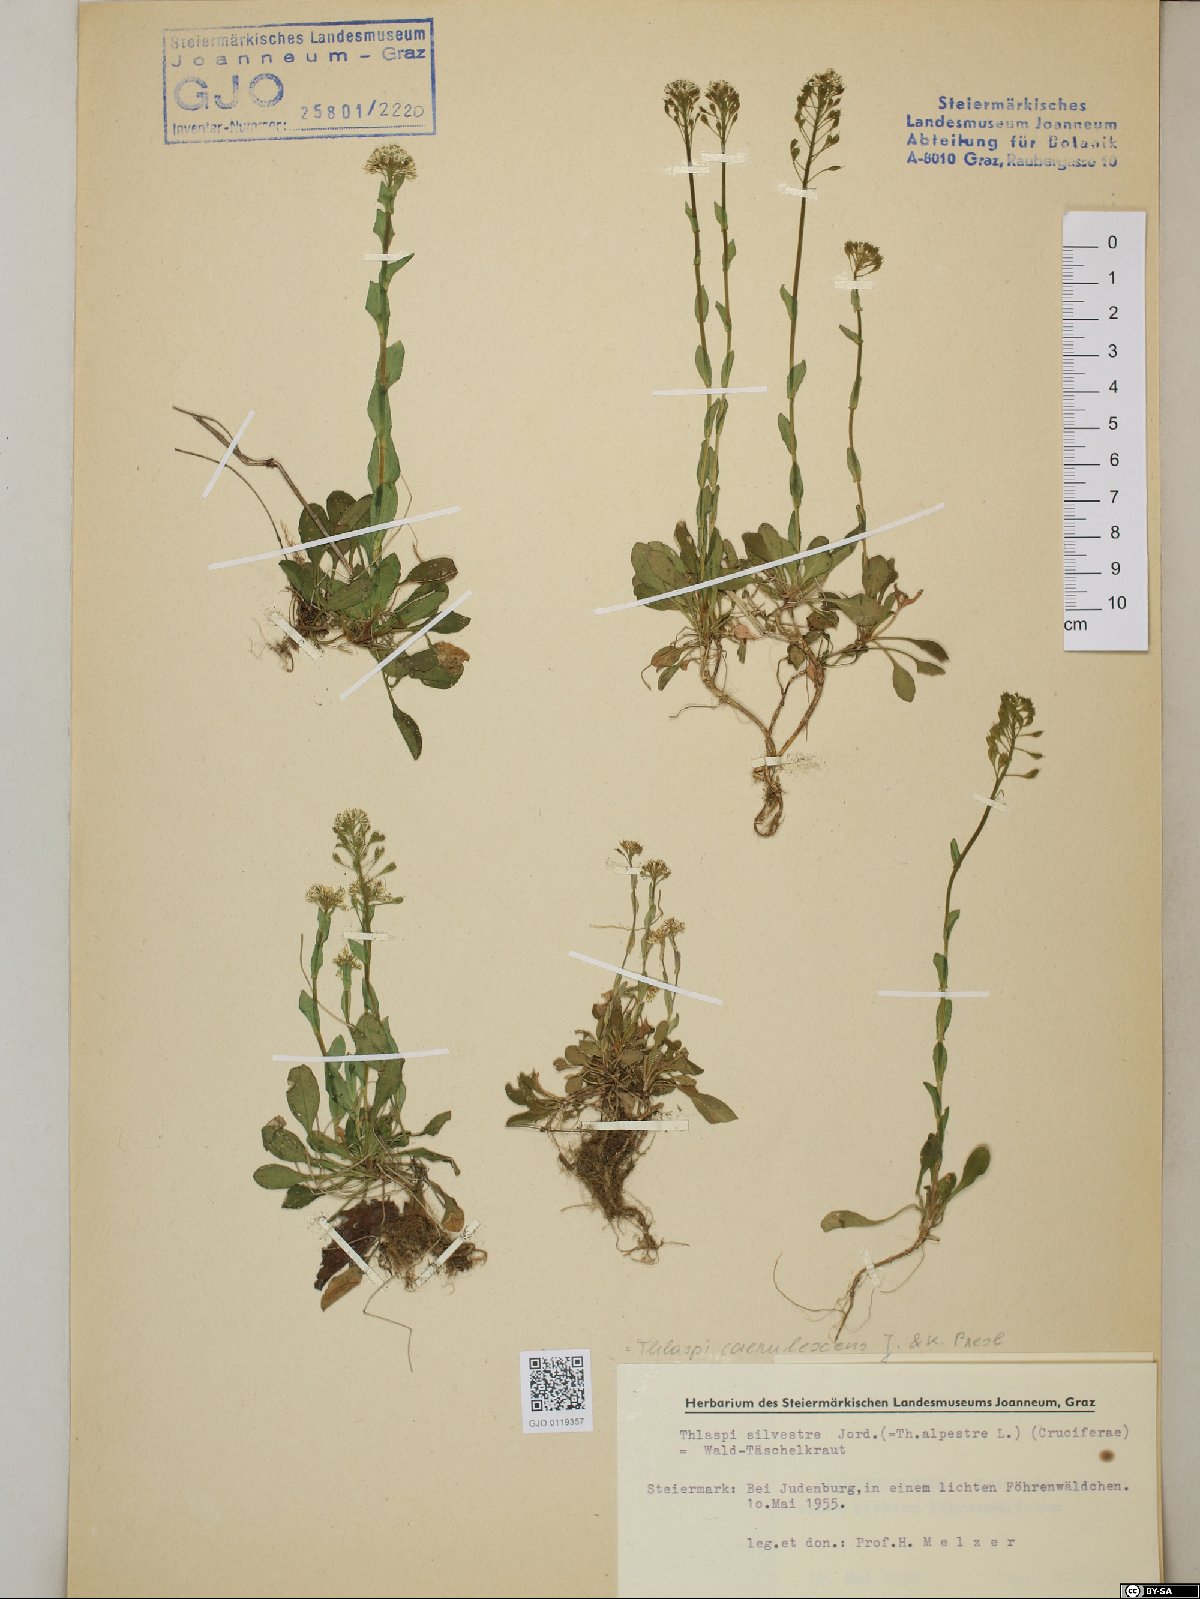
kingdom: Plantae
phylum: Tracheophyta
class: Magnoliopsida
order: Brassicales
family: Brassicaceae
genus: Noccaea
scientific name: Noccaea caerulescens
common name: Alpine pennycress
